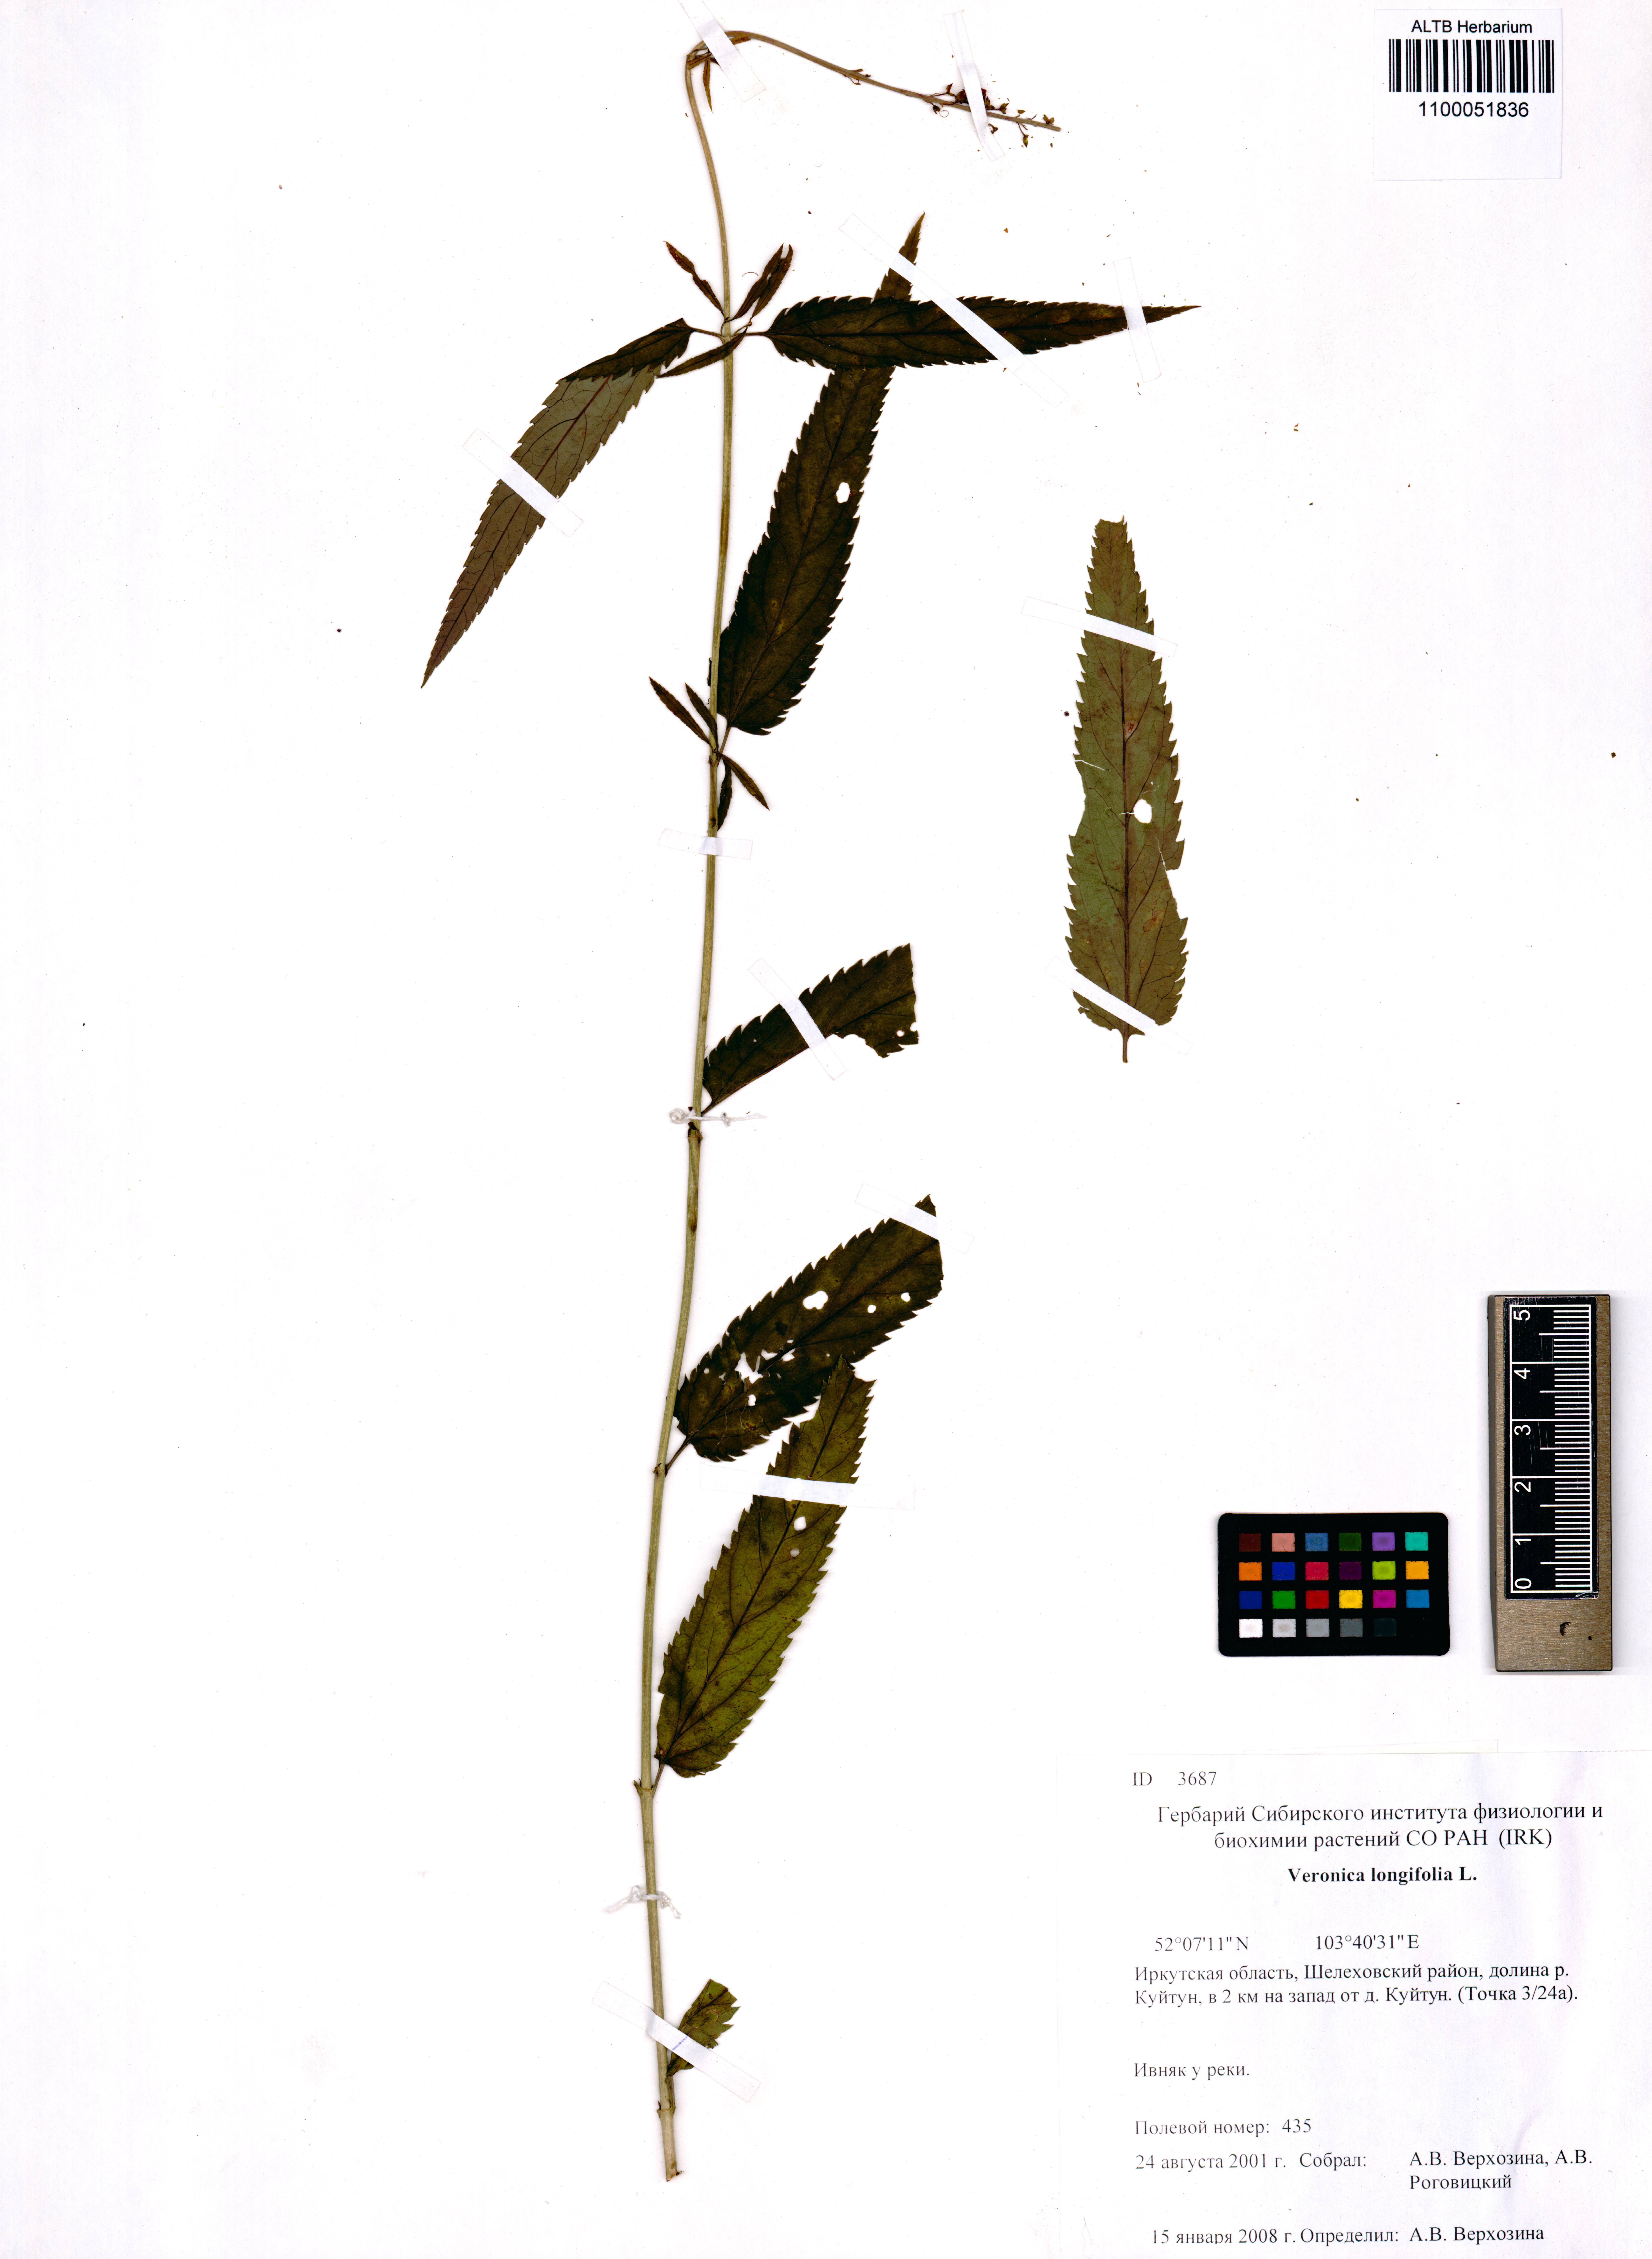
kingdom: Plantae
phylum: Tracheophyta
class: Magnoliopsida
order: Lamiales
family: Plantaginaceae
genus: Veronica
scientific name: Veronica longifolia
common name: Garden speedwell
